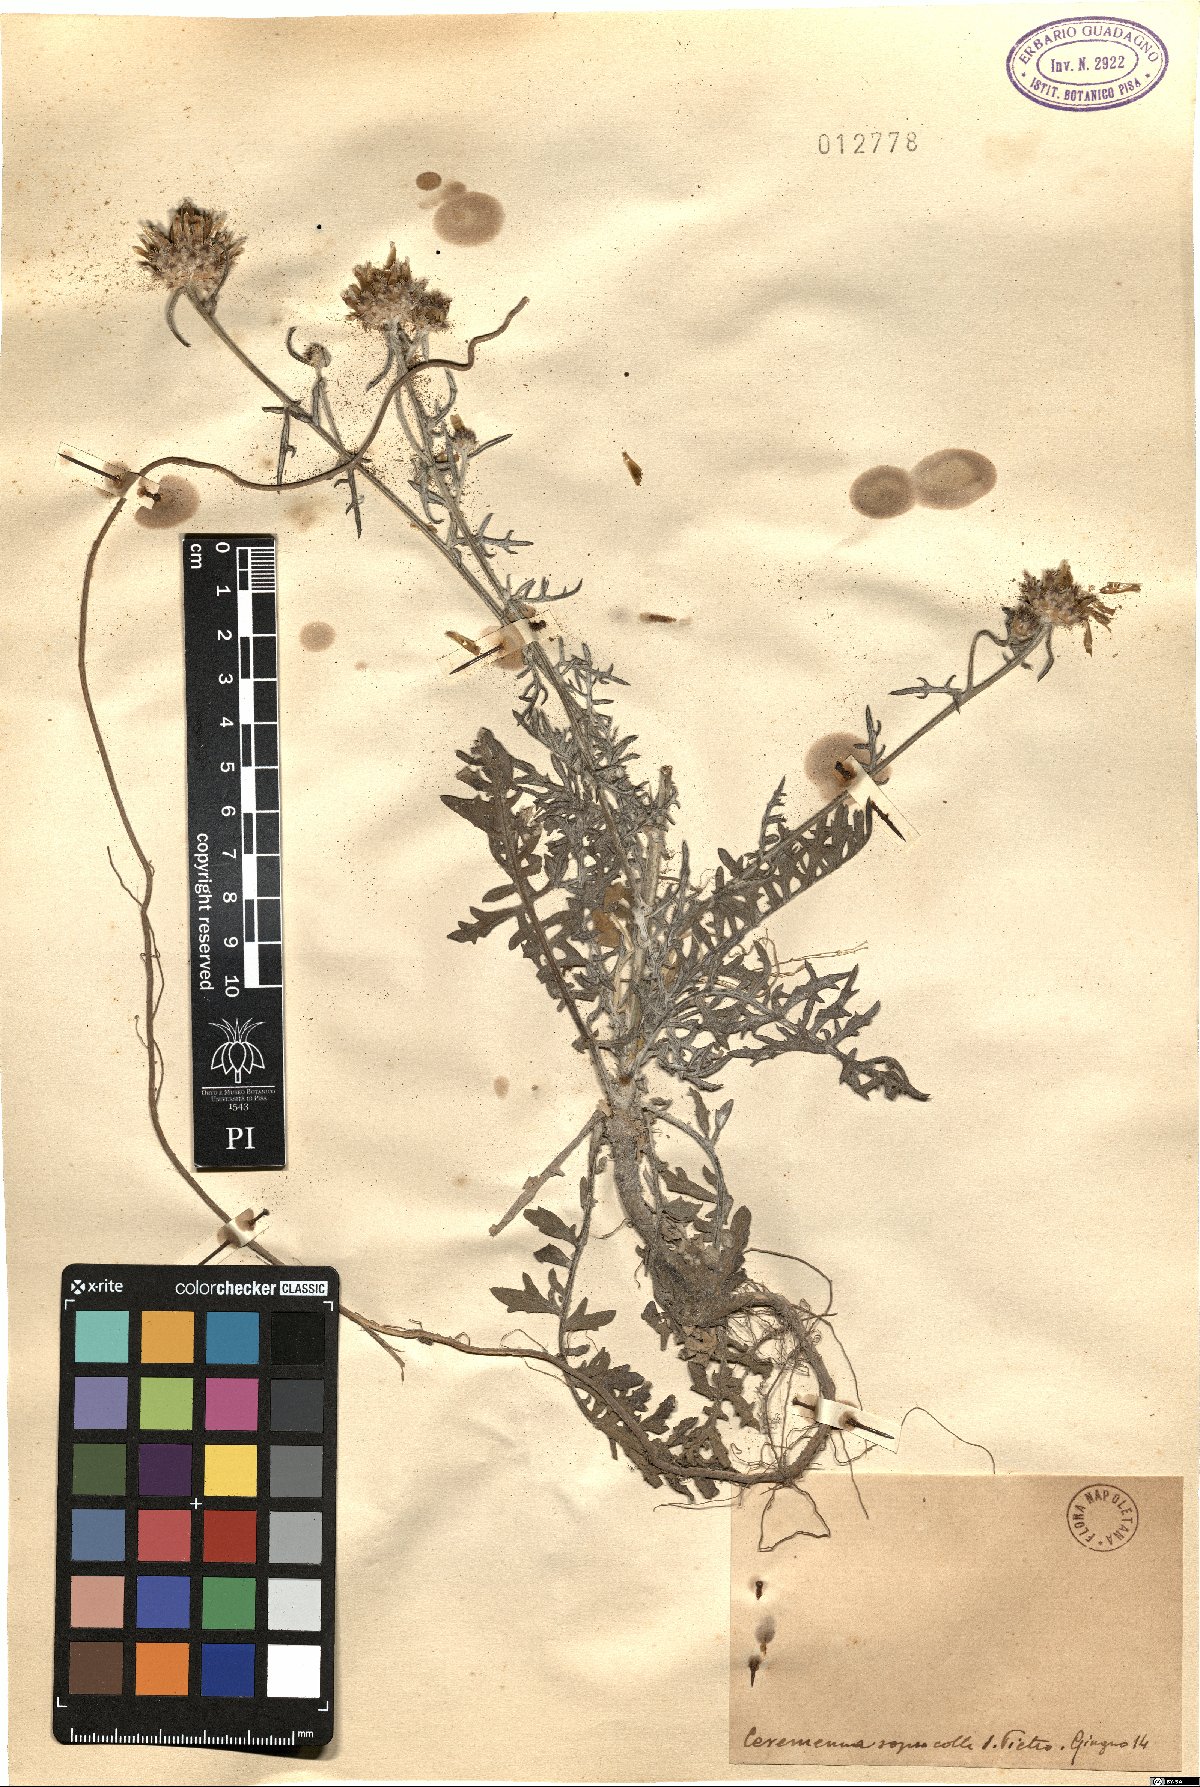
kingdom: Plantae
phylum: Tracheophyta
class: Magnoliopsida
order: Asterales
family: Asteraceae
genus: Centaurea
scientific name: Centaurea
